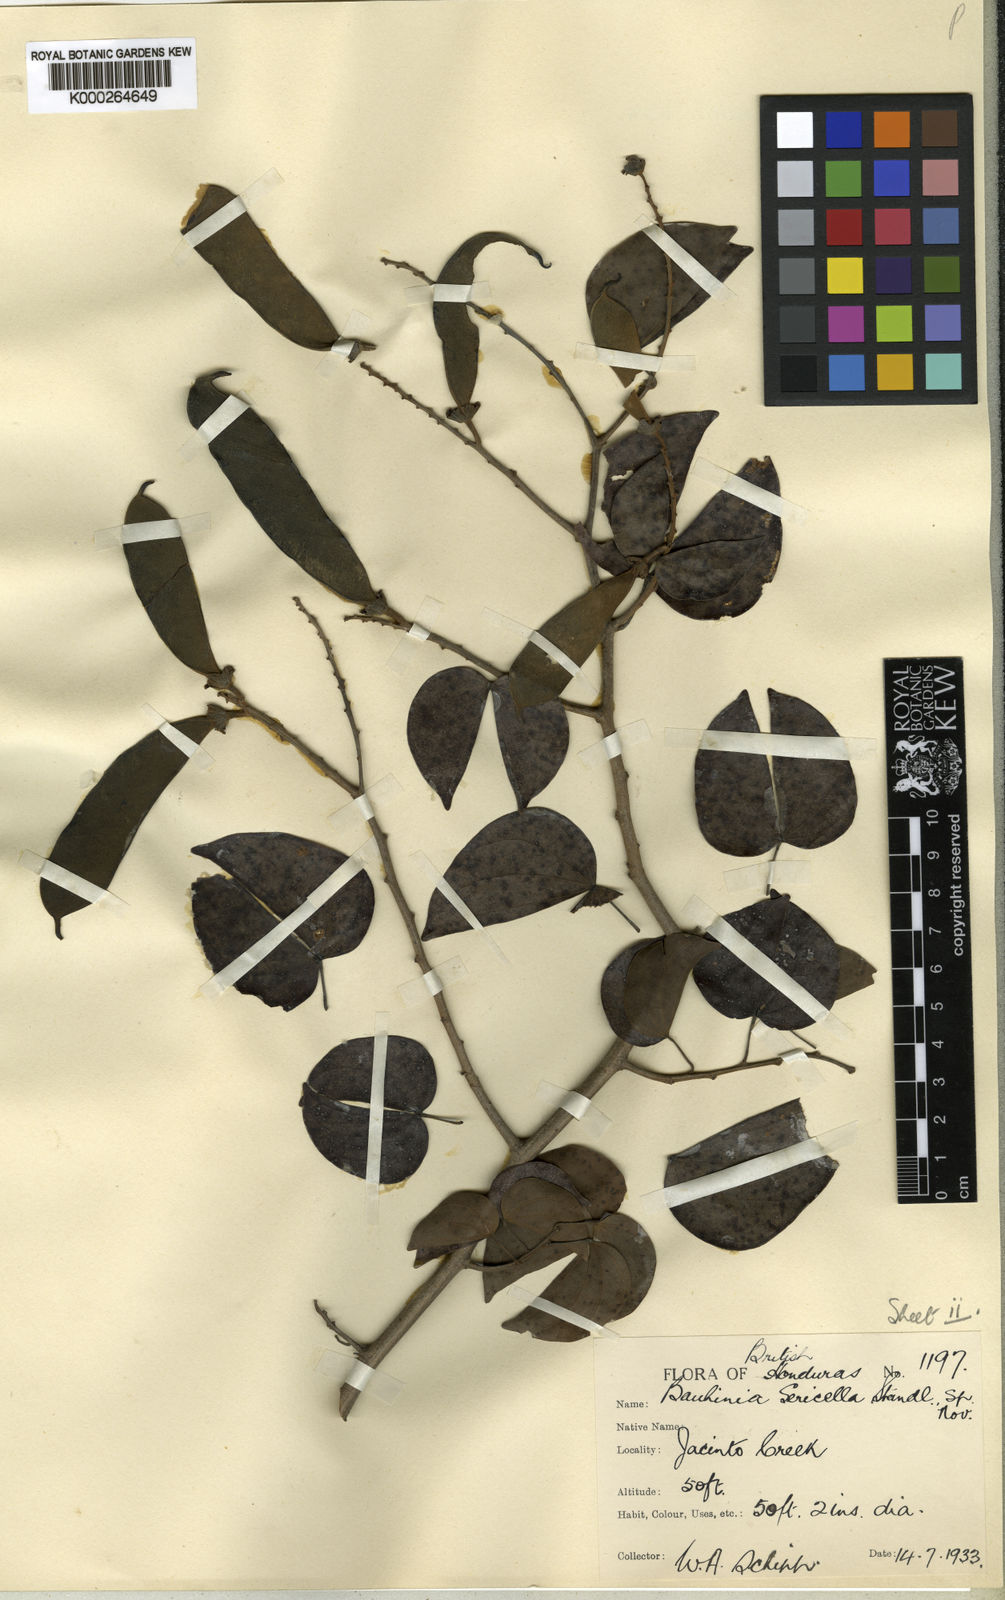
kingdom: Plantae
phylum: Tracheophyta
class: Magnoliopsida
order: Fabales
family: Fabaceae
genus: Schnella
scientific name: Schnella guianensis
